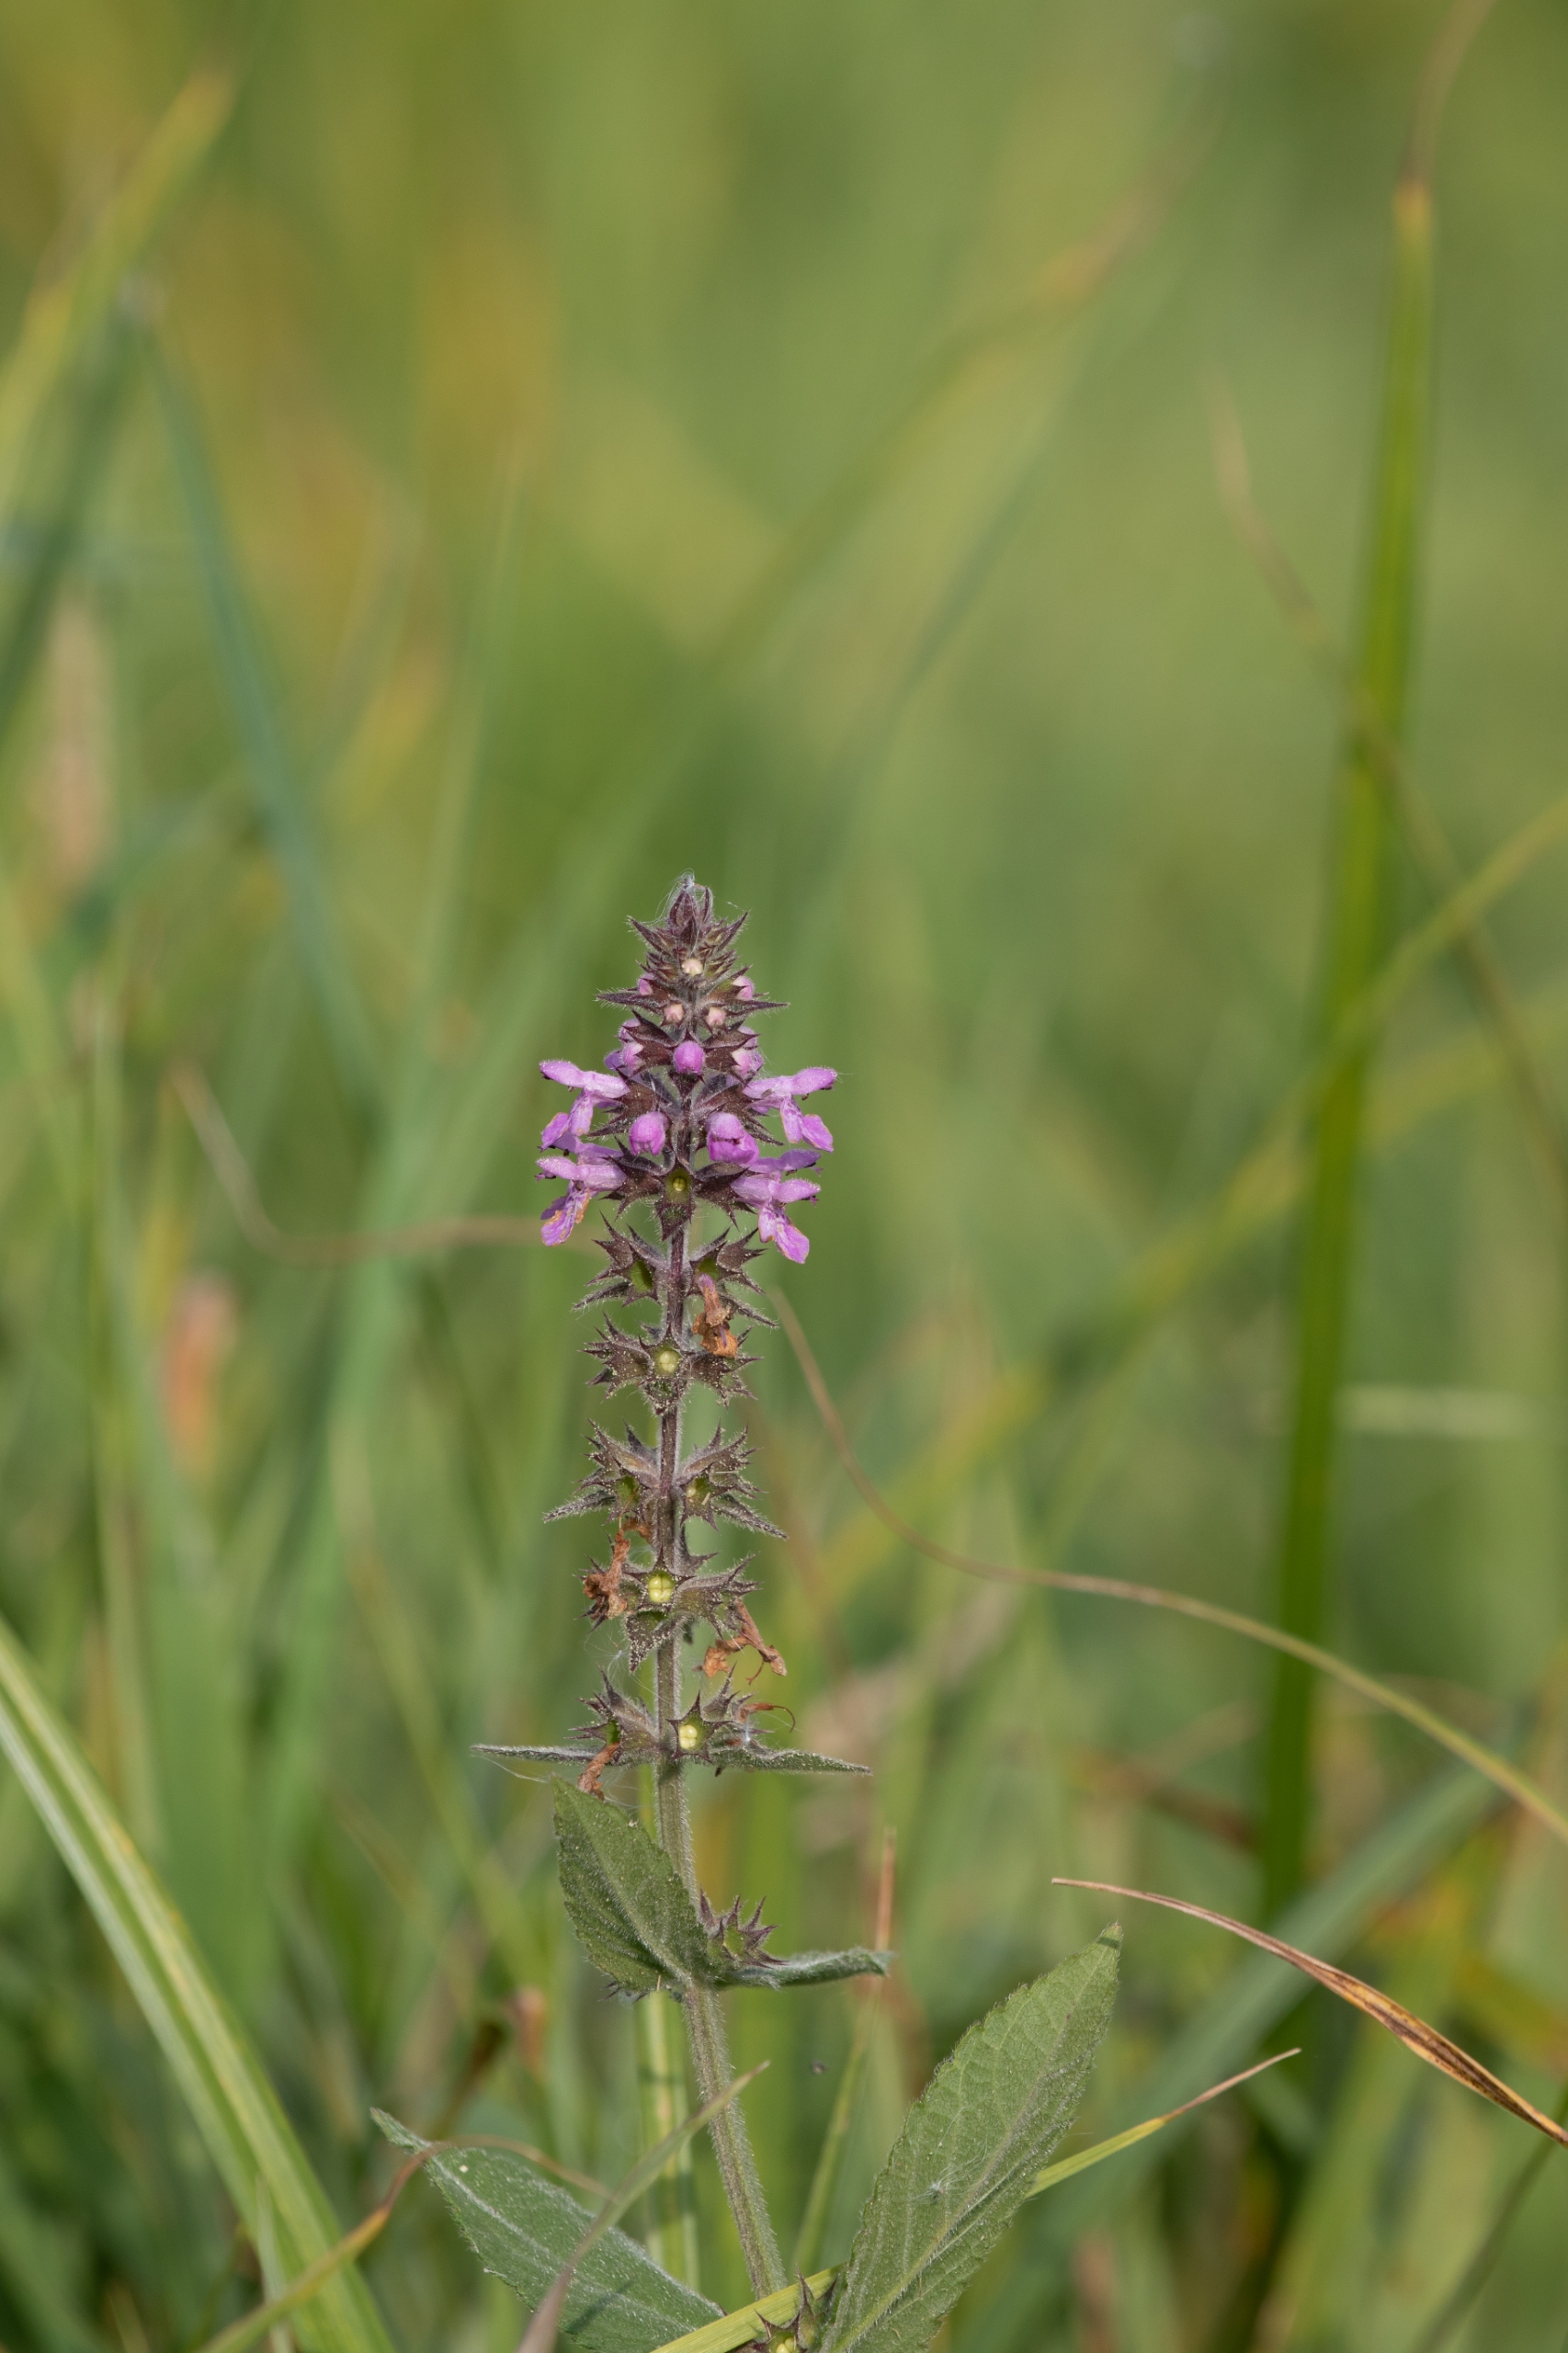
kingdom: Plantae
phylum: Tracheophyta
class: Magnoliopsida
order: Lamiales
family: Lamiaceae
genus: Stachys
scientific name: Stachys palustris
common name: Kær-galtetand
